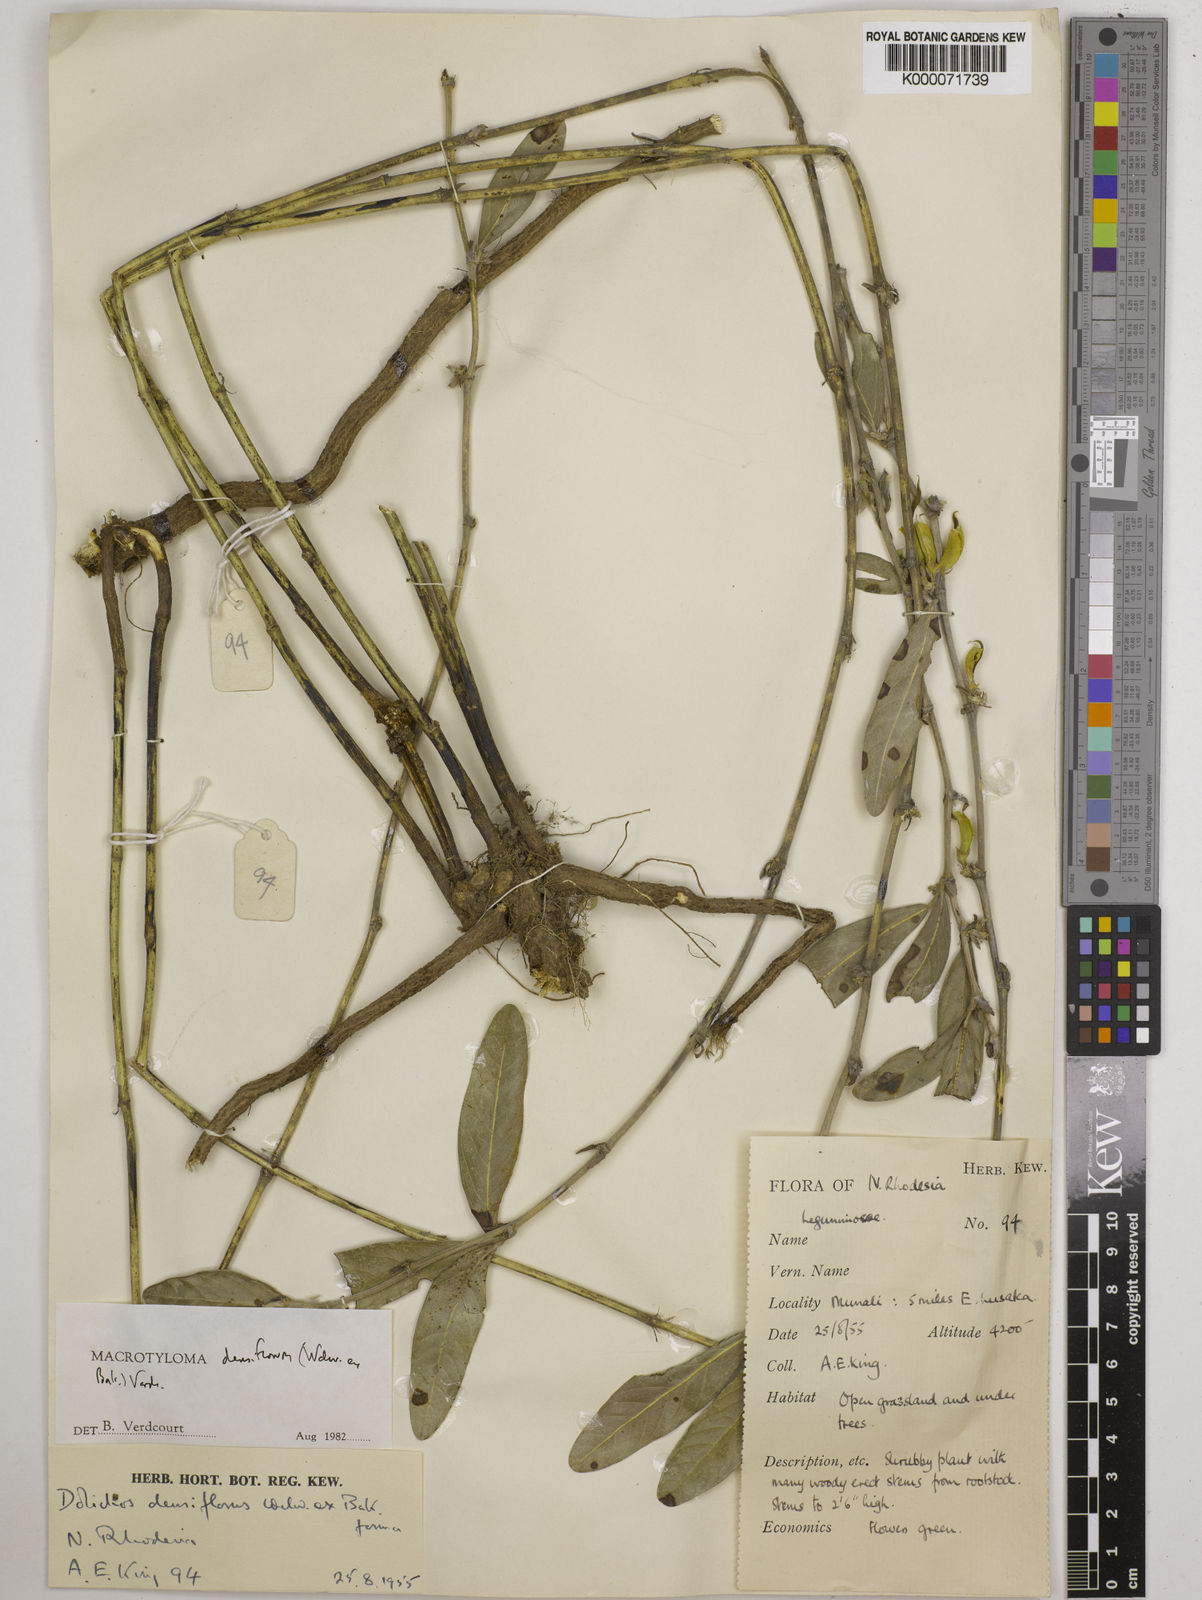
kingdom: Plantae
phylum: Tracheophyta
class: Magnoliopsida
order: Fabales
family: Fabaceae
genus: Macrotyloma
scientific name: Macrotyloma densiflorum
